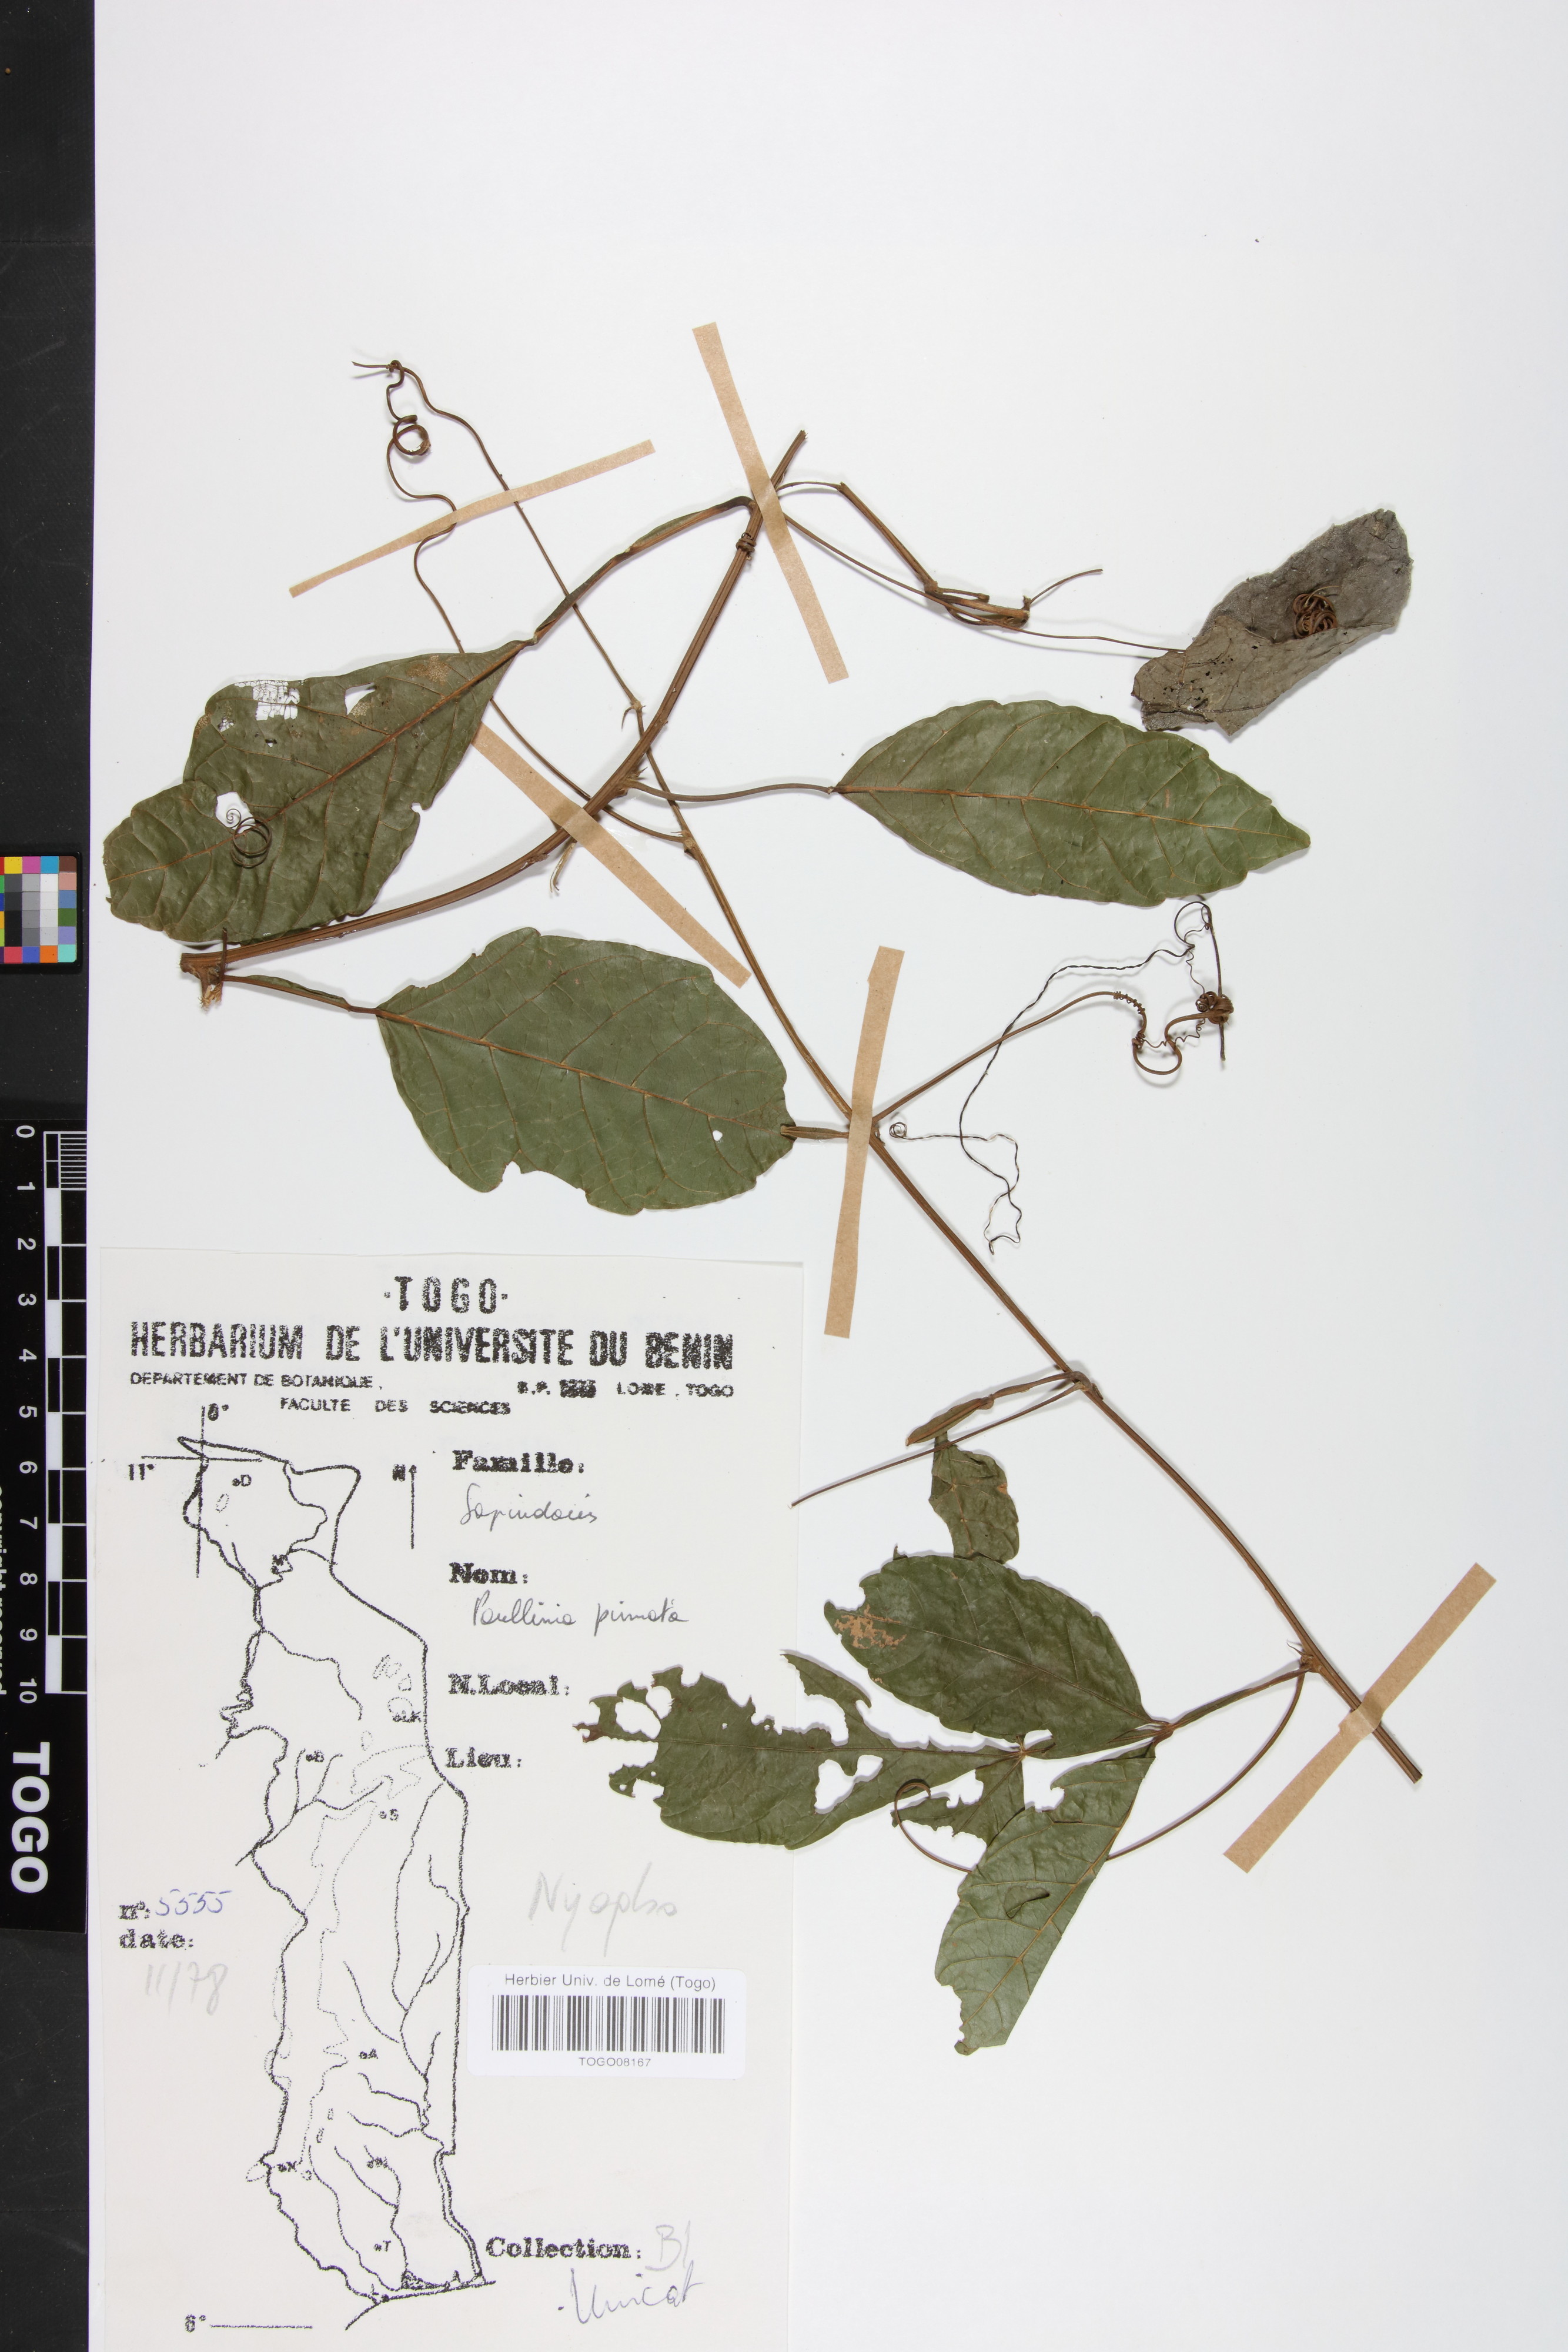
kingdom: Plantae
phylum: Tracheophyta
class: Magnoliopsida
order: Sapindales
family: Sapindaceae
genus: Paullinia
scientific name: Paullinia pinnata
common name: Barbasco
